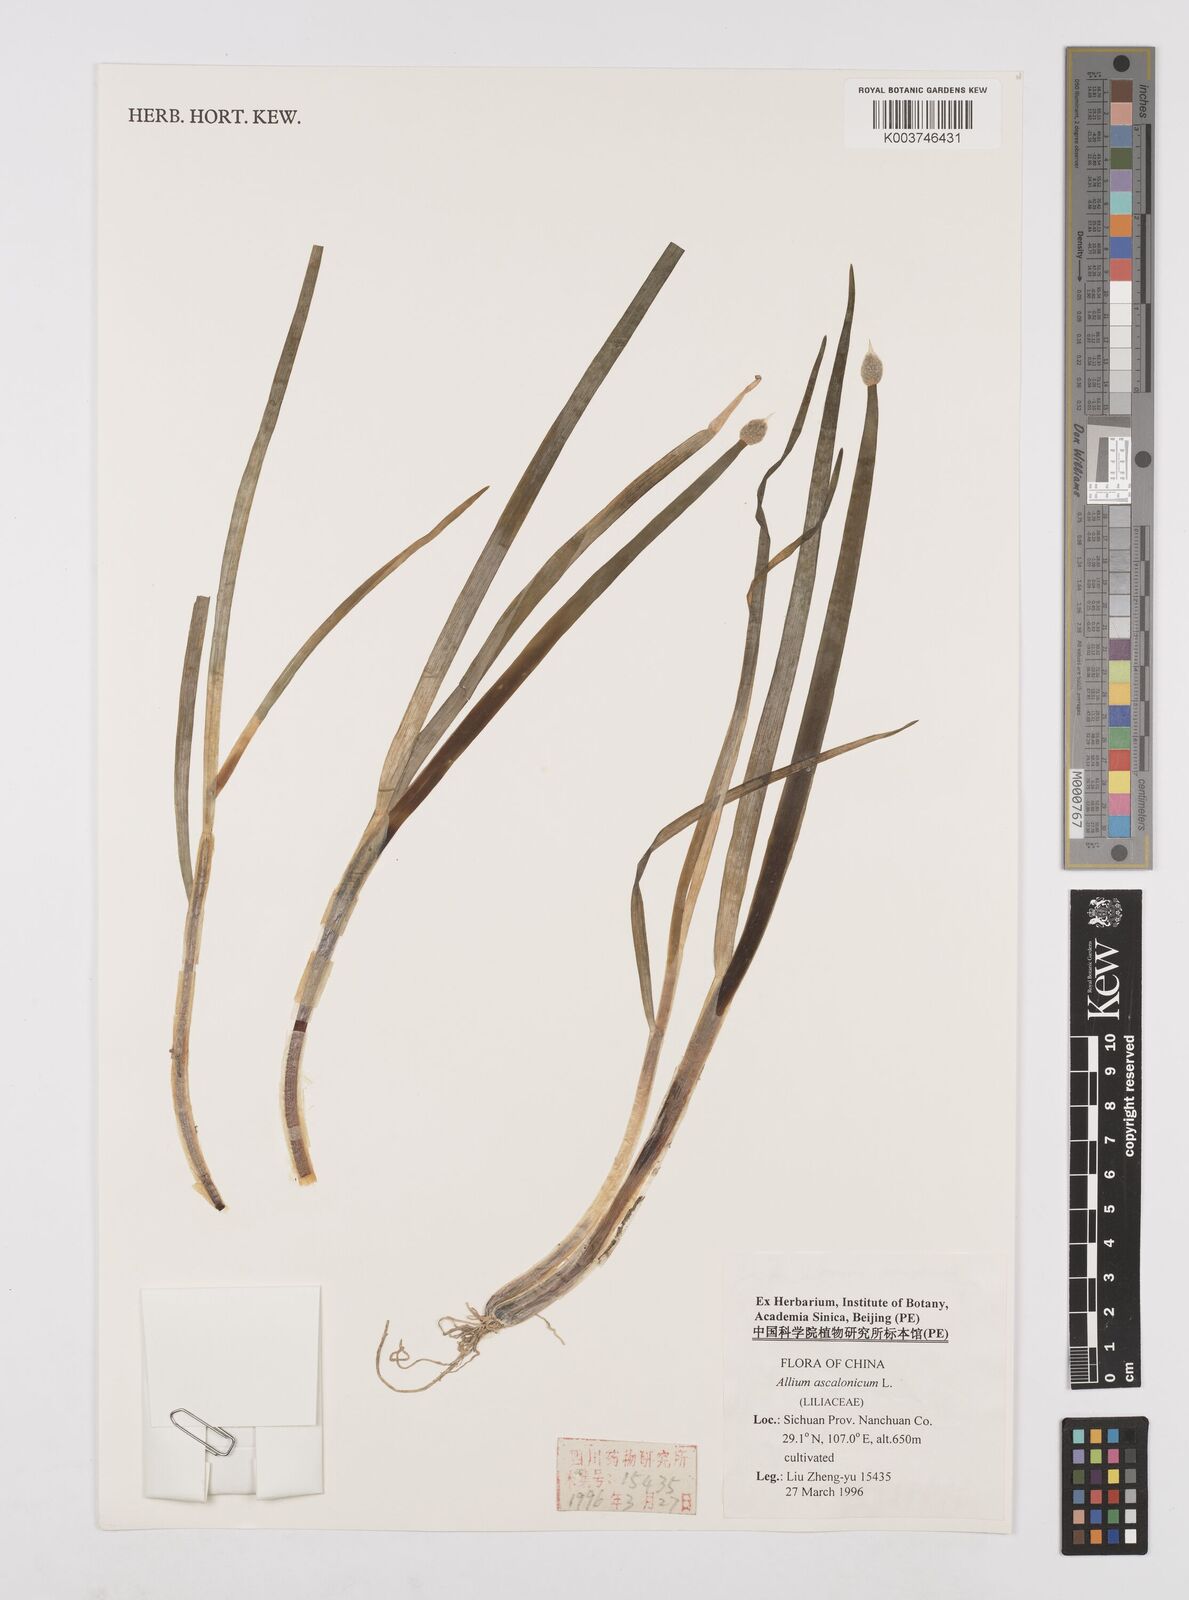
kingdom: Plantae
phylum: Tracheophyta
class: Liliopsida
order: Asparagales
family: Amaryllidaceae
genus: Allium
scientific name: Allium ascalonicum
